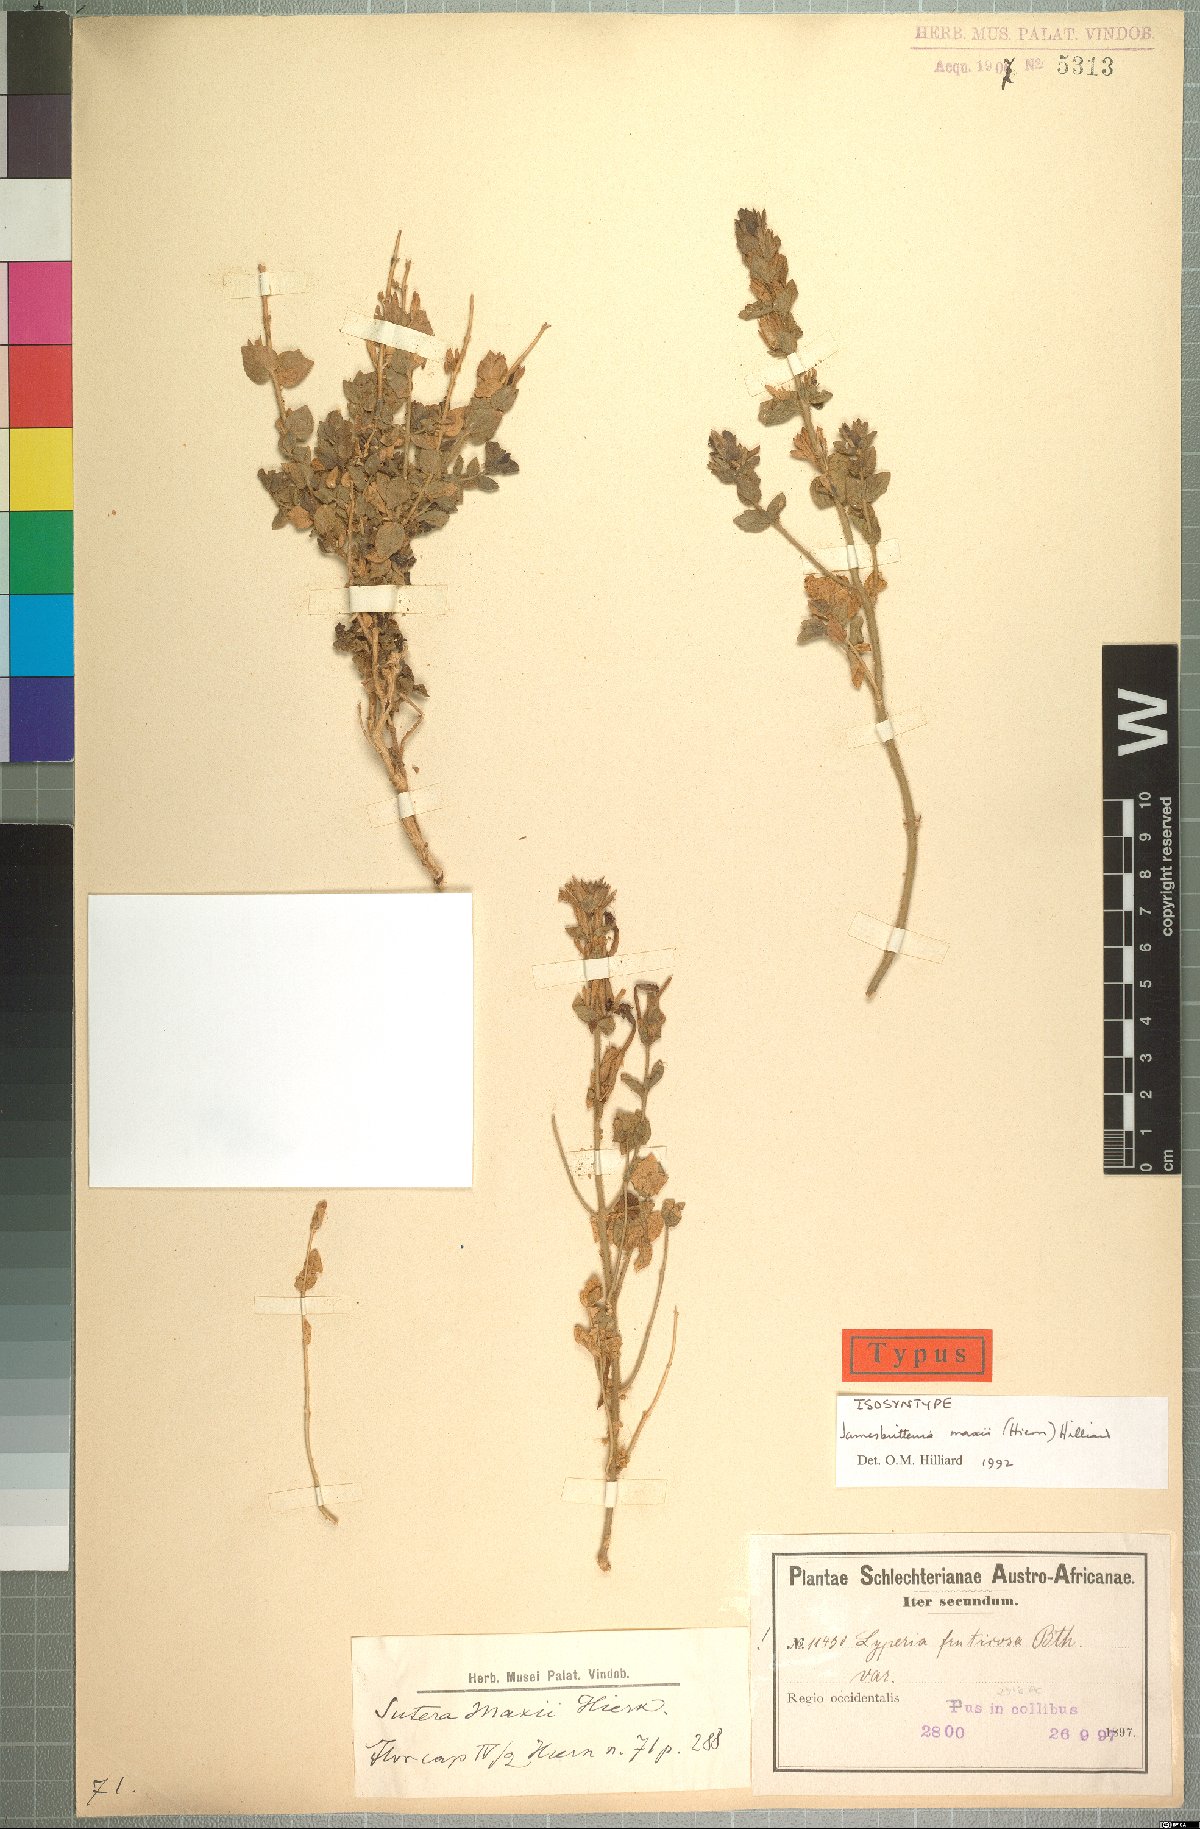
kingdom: Plantae
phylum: Tracheophyta
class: Magnoliopsida
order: Lamiales
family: Scrophulariaceae
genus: Jamesbrittenia
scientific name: Jamesbrittenia maxii
